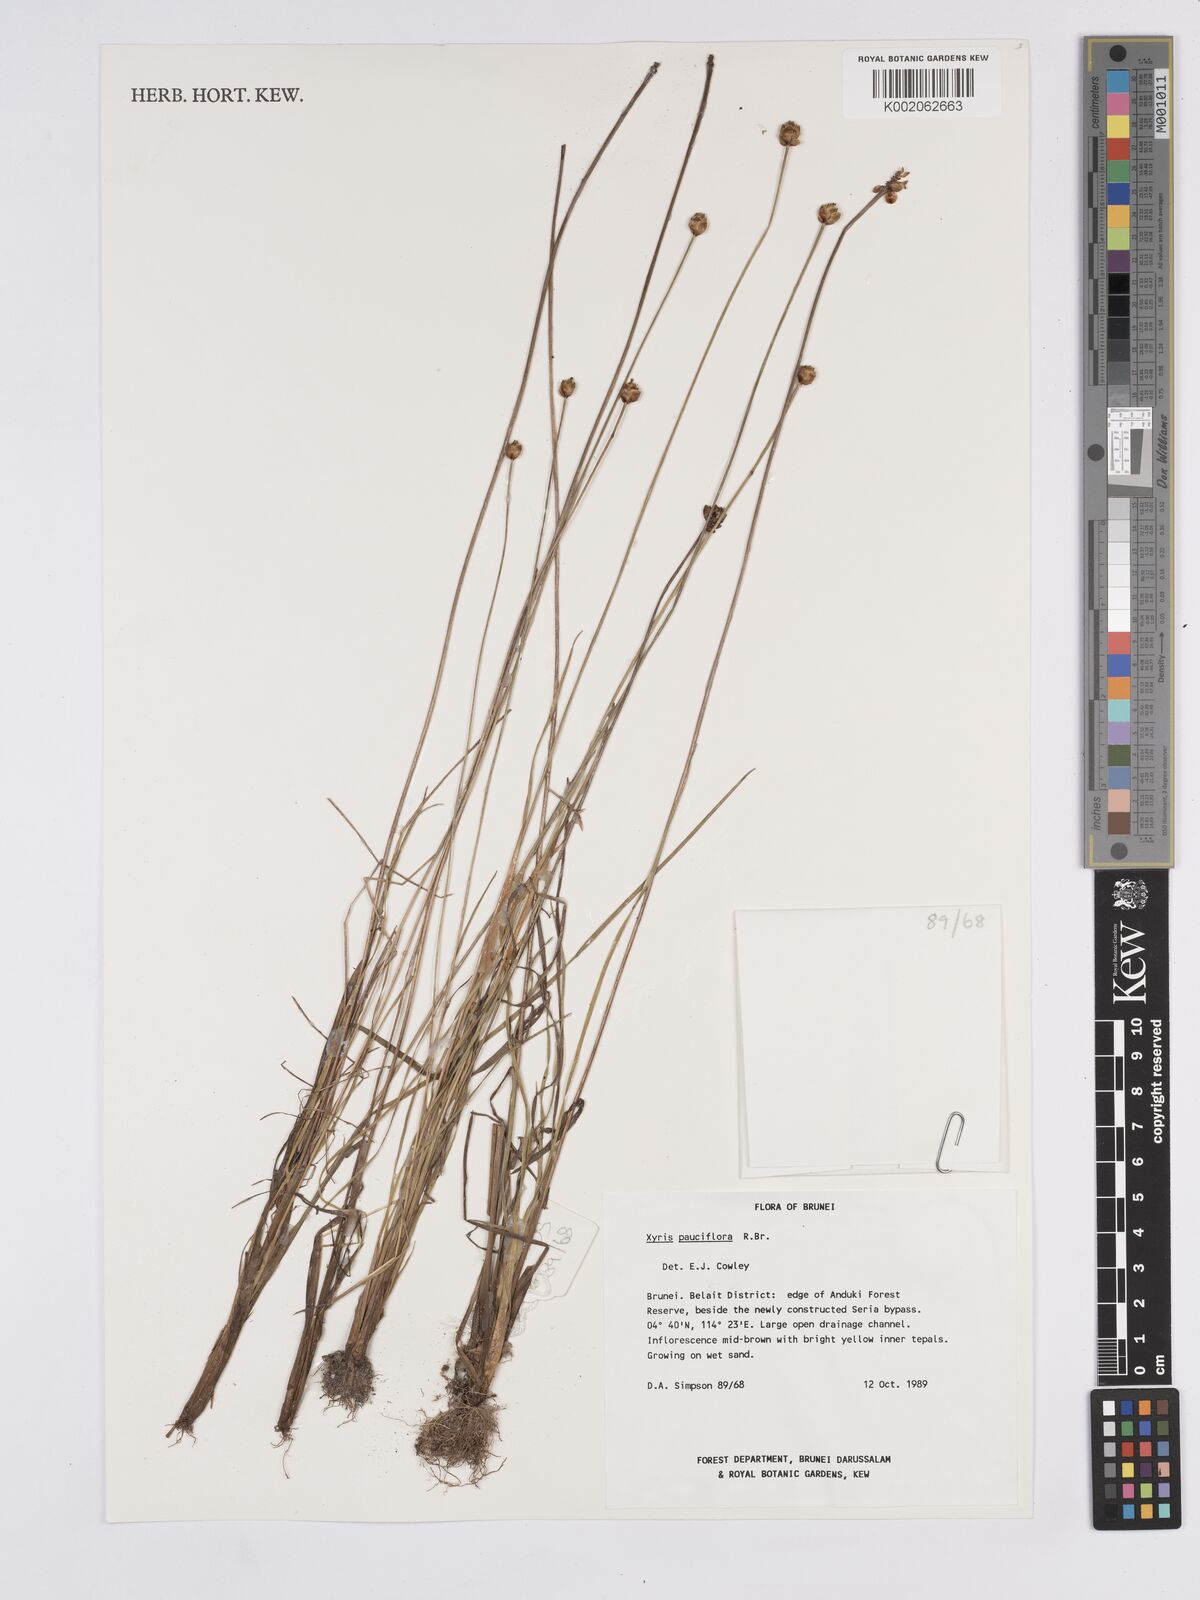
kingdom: Plantae
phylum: Tracheophyta
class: Liliopsida
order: Poales
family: Xyridaceae
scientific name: Xyridaceae
